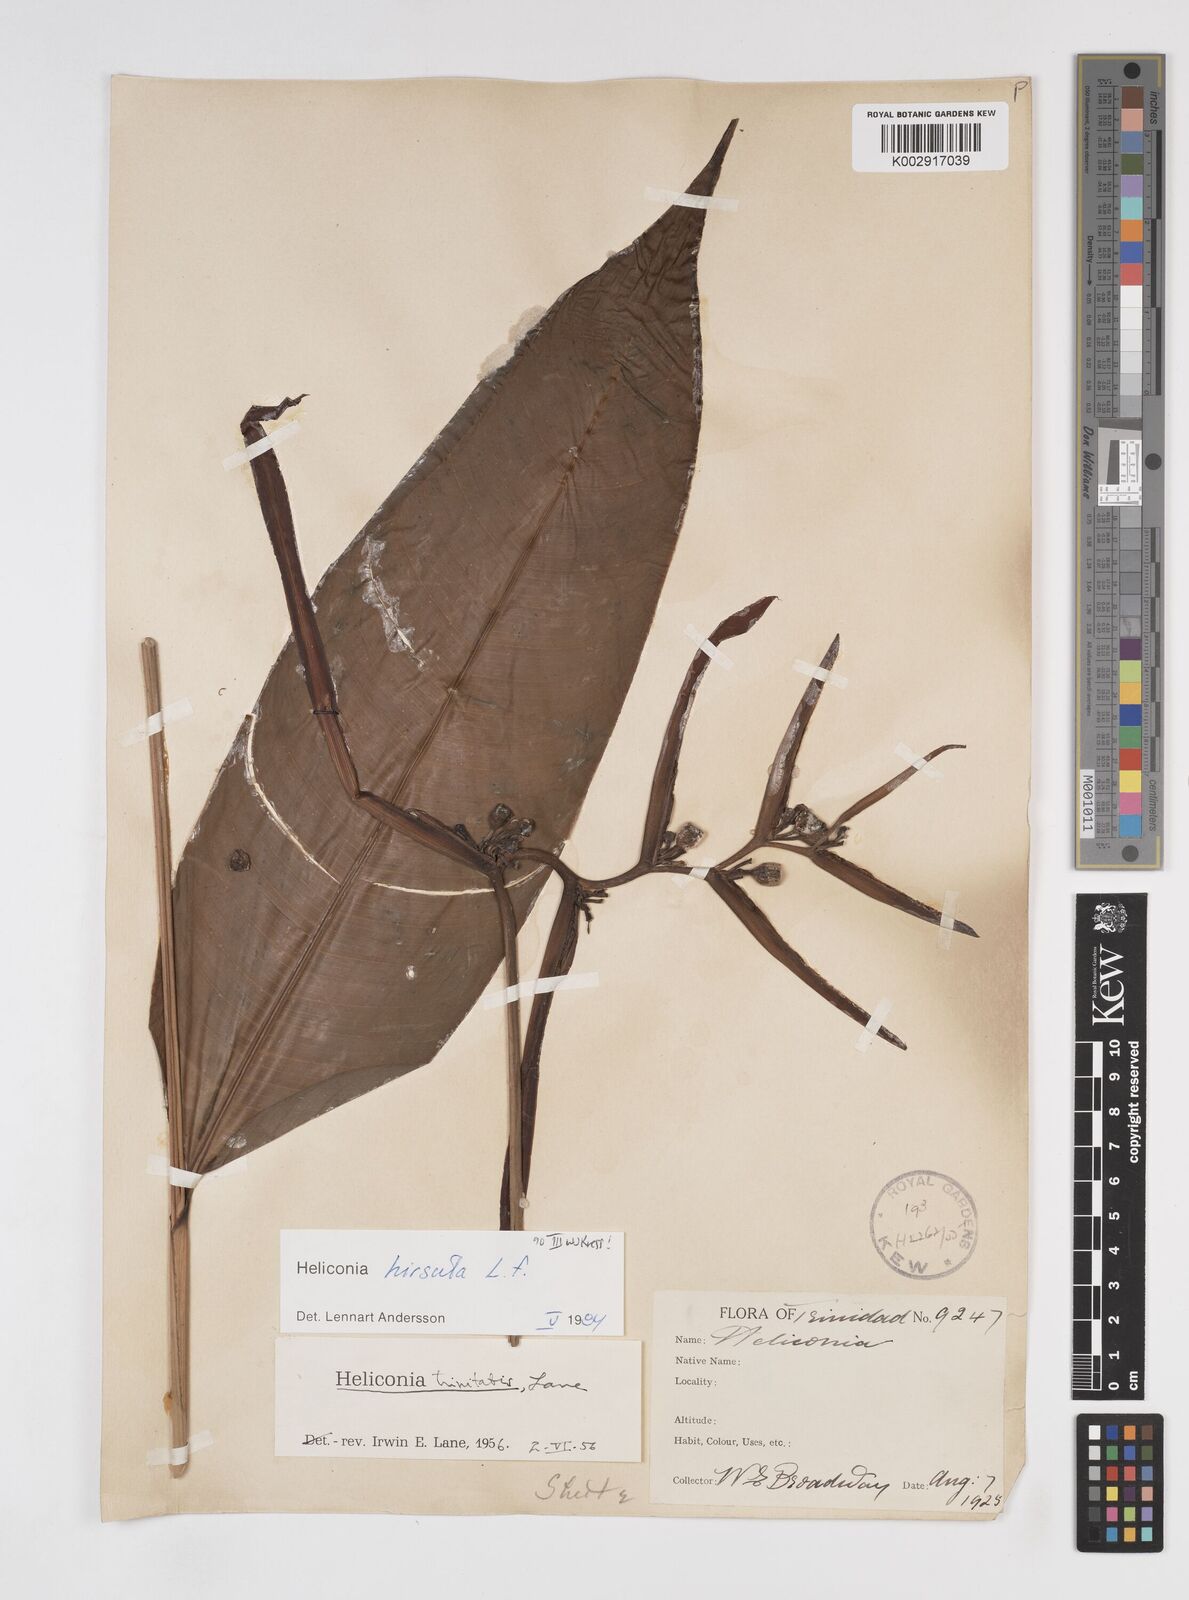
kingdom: Plantae
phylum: Tracheophyta
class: Liliopsida
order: Zingiberales
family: Heliconiaceae
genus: Heliconia
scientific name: Heliconia hirsuta
